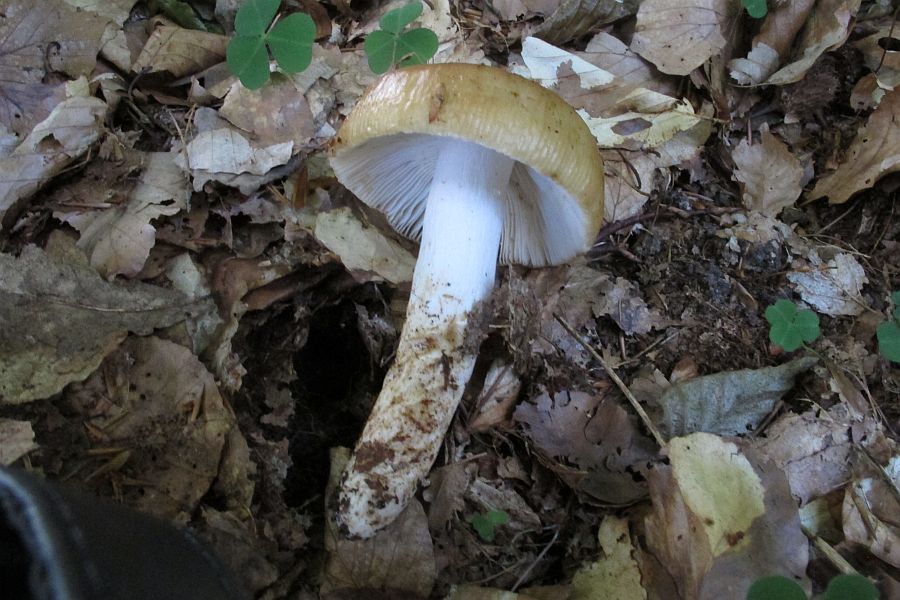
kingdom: Fungi
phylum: Basidiomycota
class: Agaricomycetes
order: Russulales
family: Russulaceae
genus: Russula
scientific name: Russula grata
